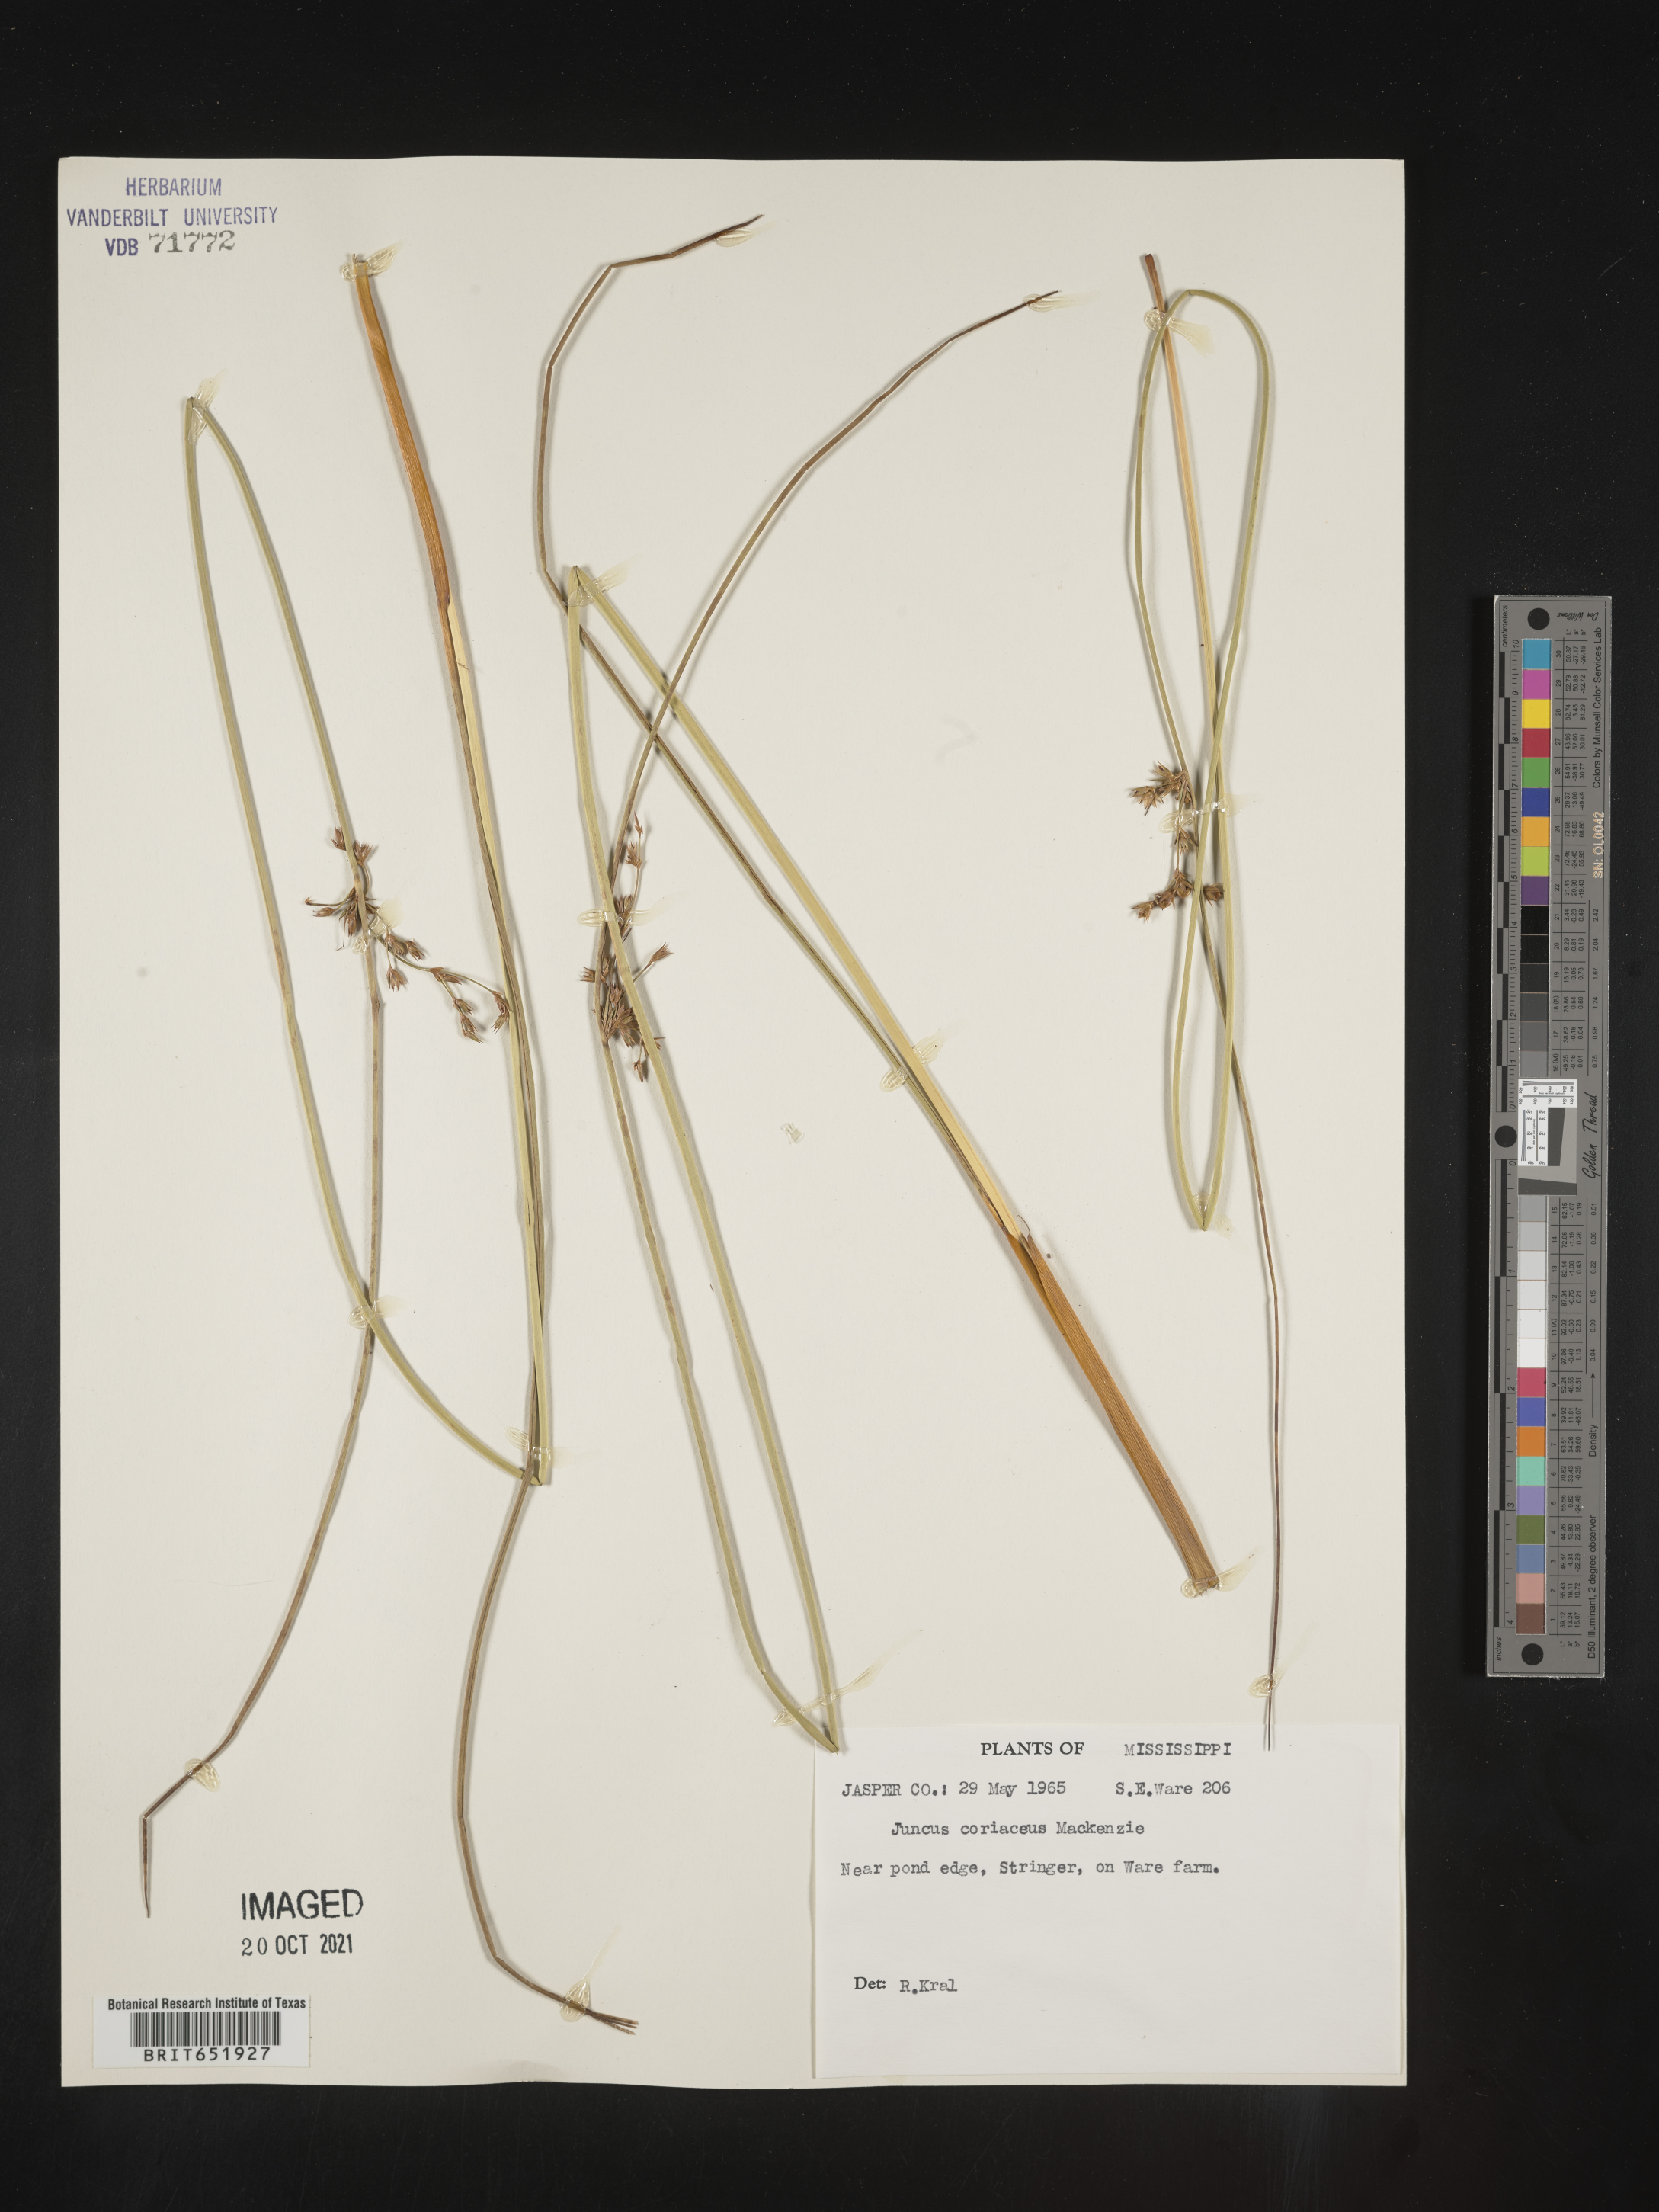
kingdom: Plantae
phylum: Tracheophyta
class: Liliopsida
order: Poales
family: Juncaceae
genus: Juncus
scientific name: Juncus coriaceus
